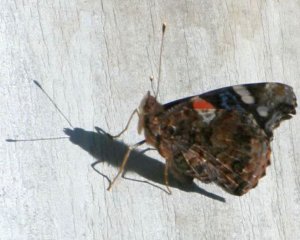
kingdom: Animalia
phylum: Arthropoda
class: Insecta
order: Lepidoptera
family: Nymphalidae
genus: Vanessa
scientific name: Vanessa atalanta
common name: Red Admiral
